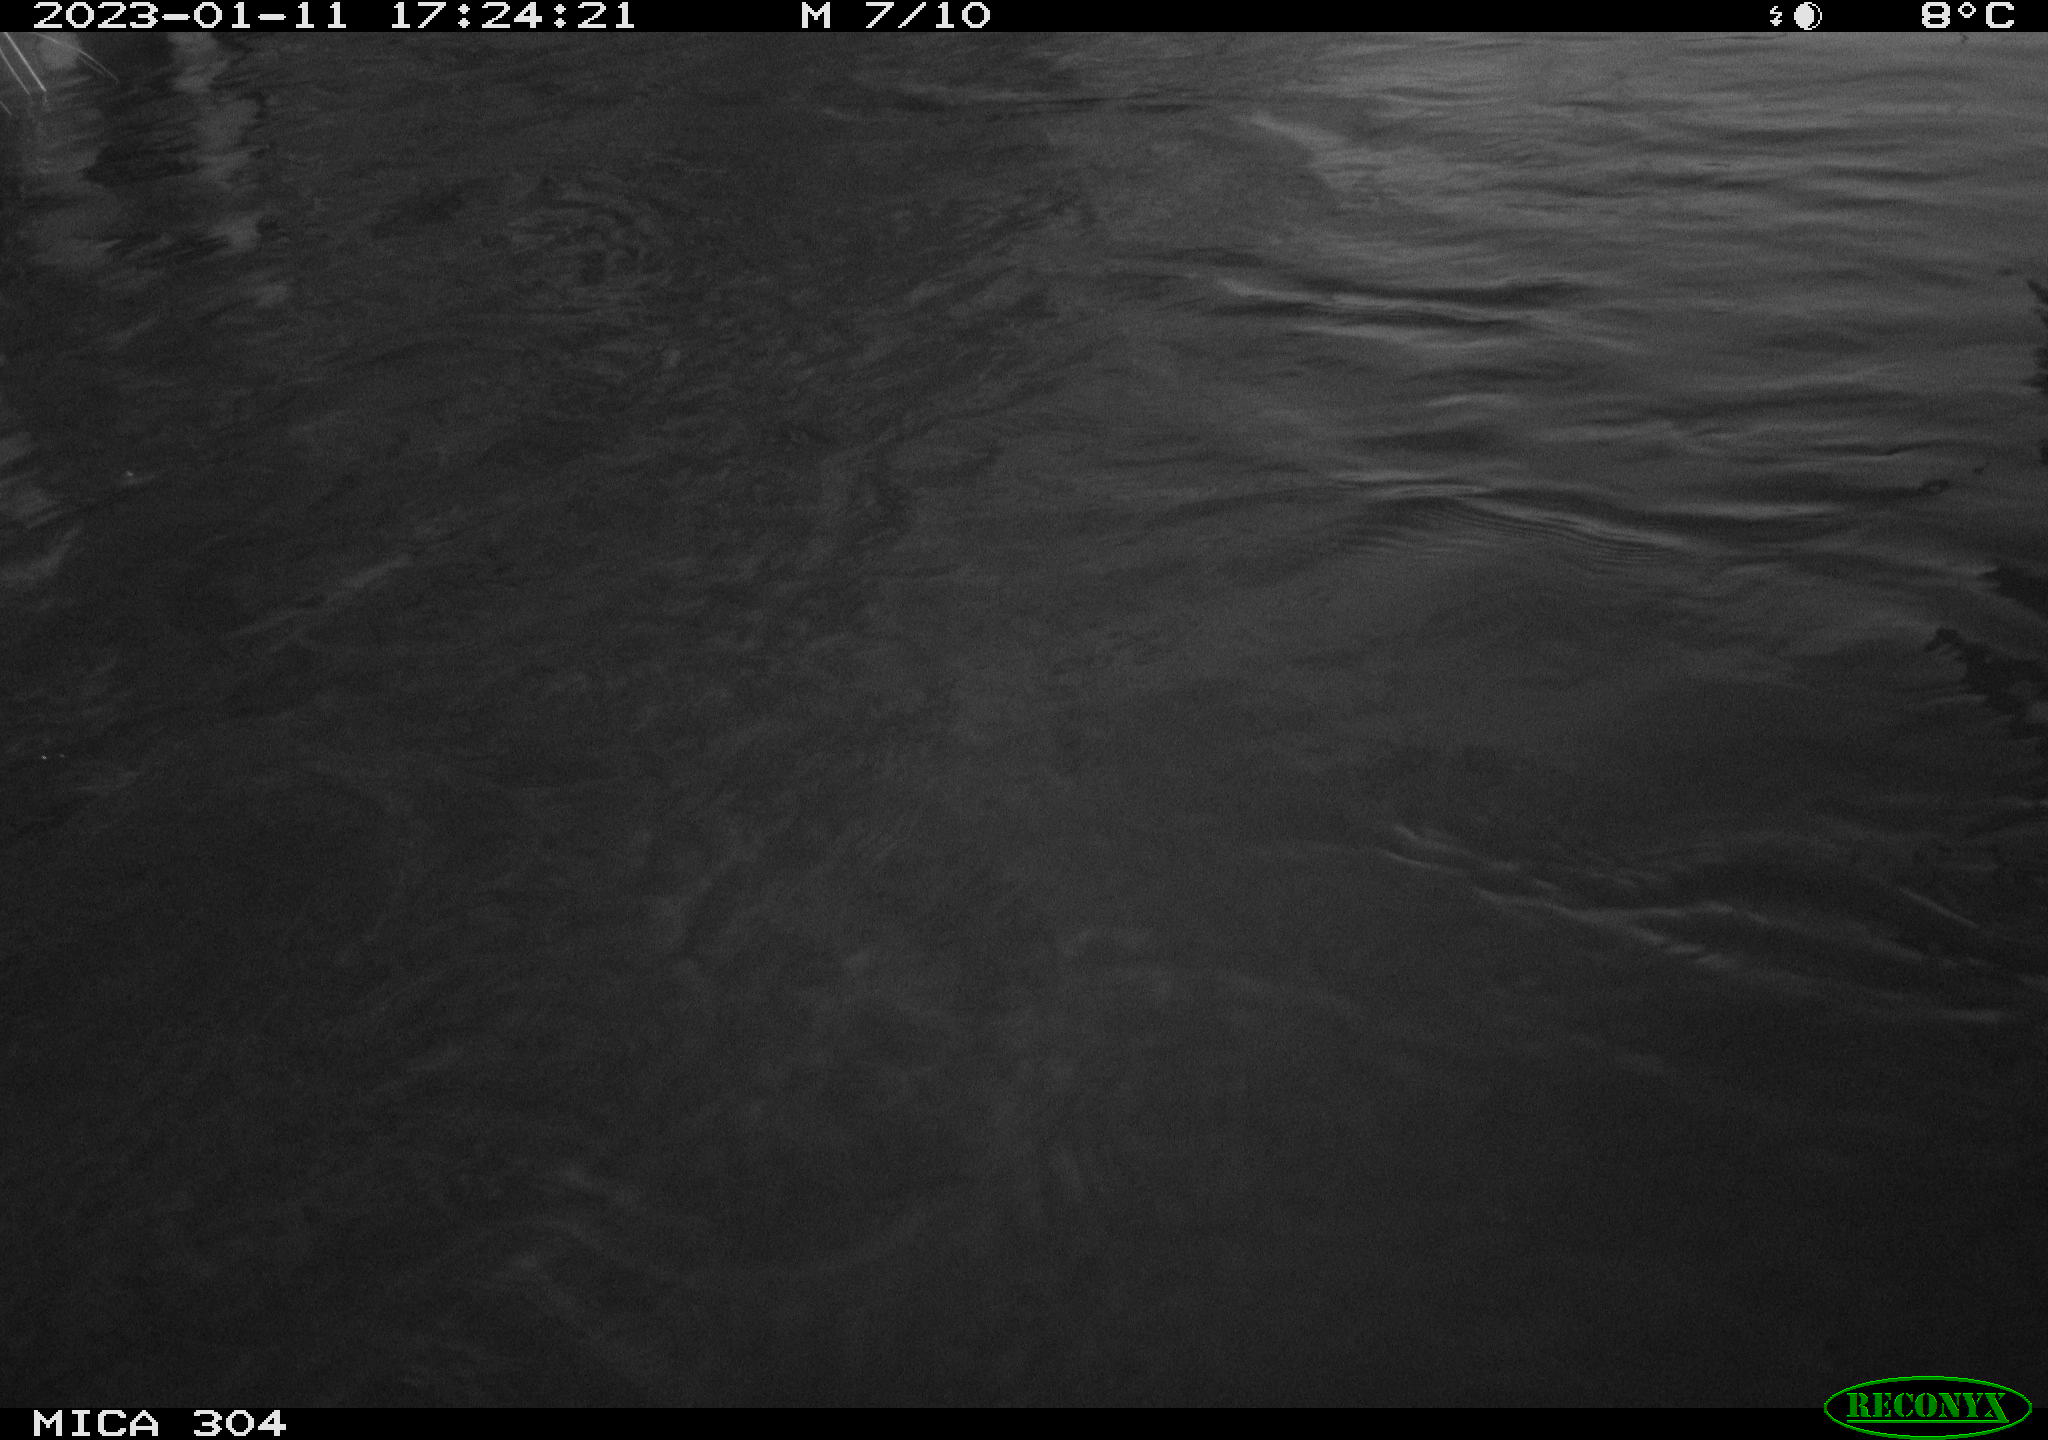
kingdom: Animalia
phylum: Chordata
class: Aves
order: Gruiformes
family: Rallidae
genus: Fulica
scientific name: Fulica atra
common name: Eurasian coot
